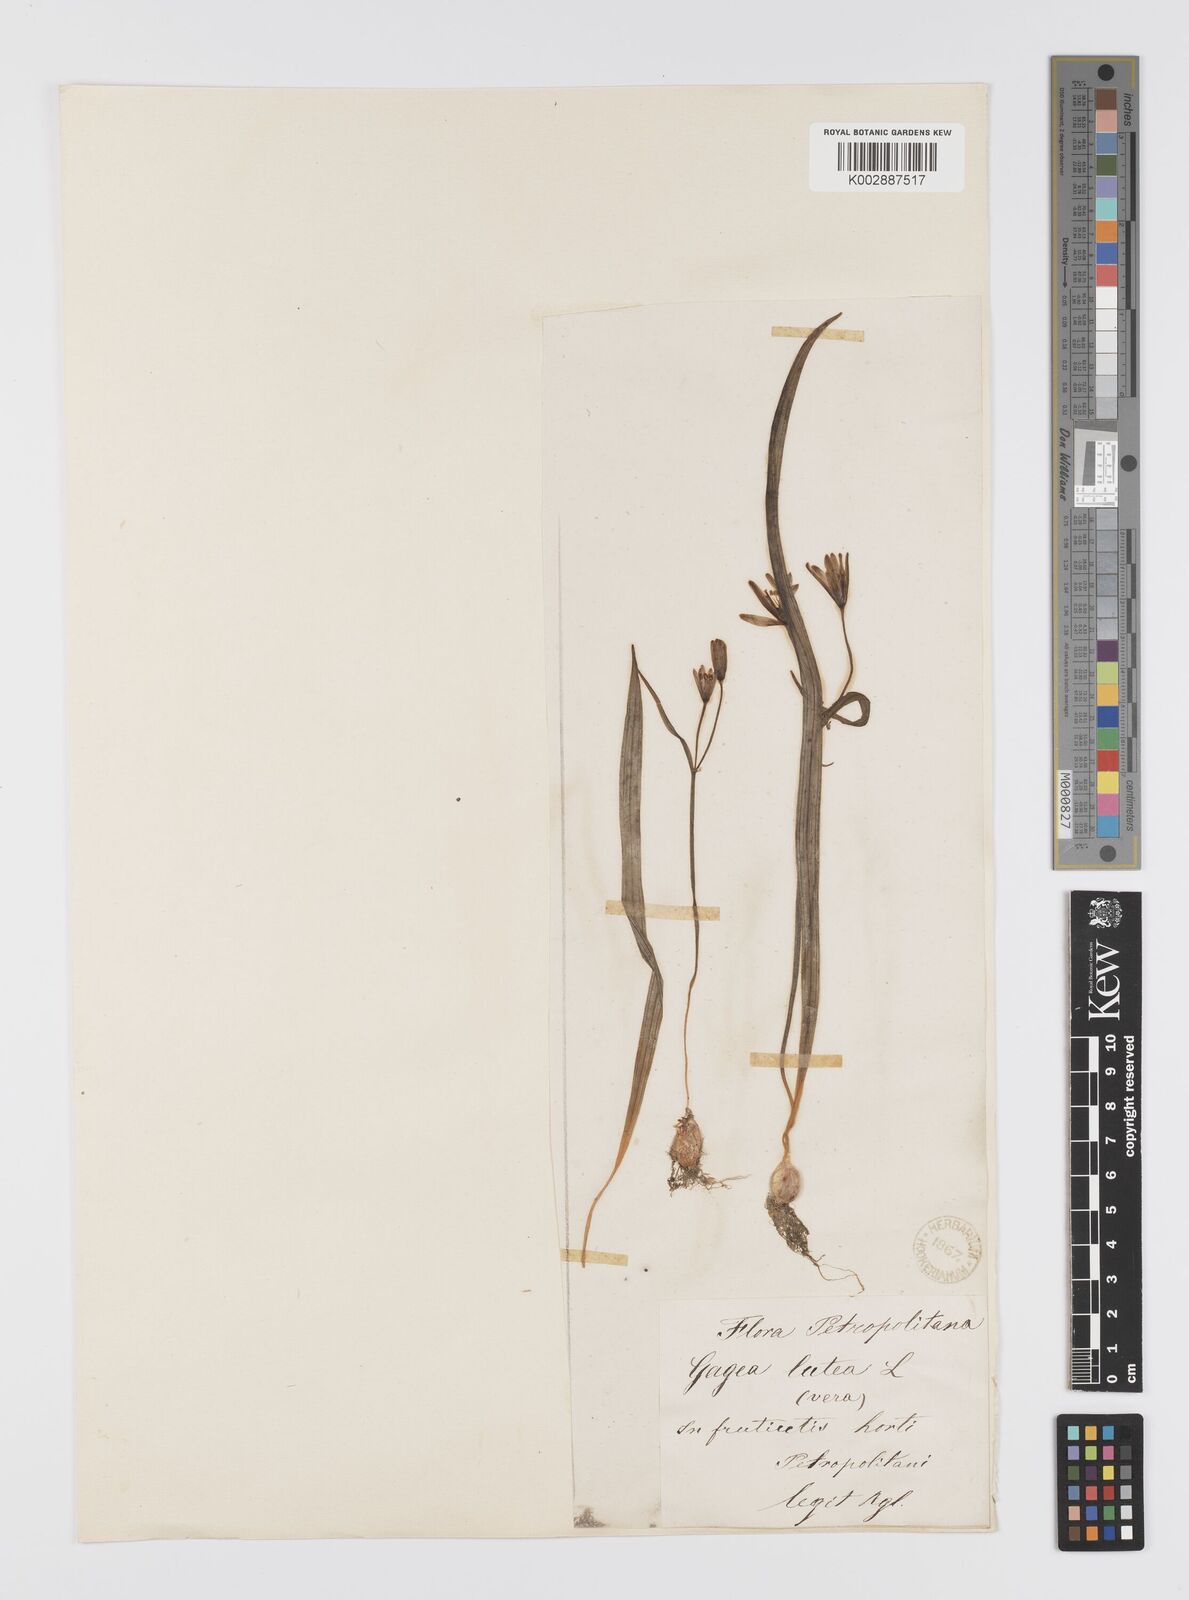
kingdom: Plantae
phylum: Tracheophyta
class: Liliopsida
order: Liliales
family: Liliaceae
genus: Gagea
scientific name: Gagea lutea
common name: Yellow star-of-bethlehem
